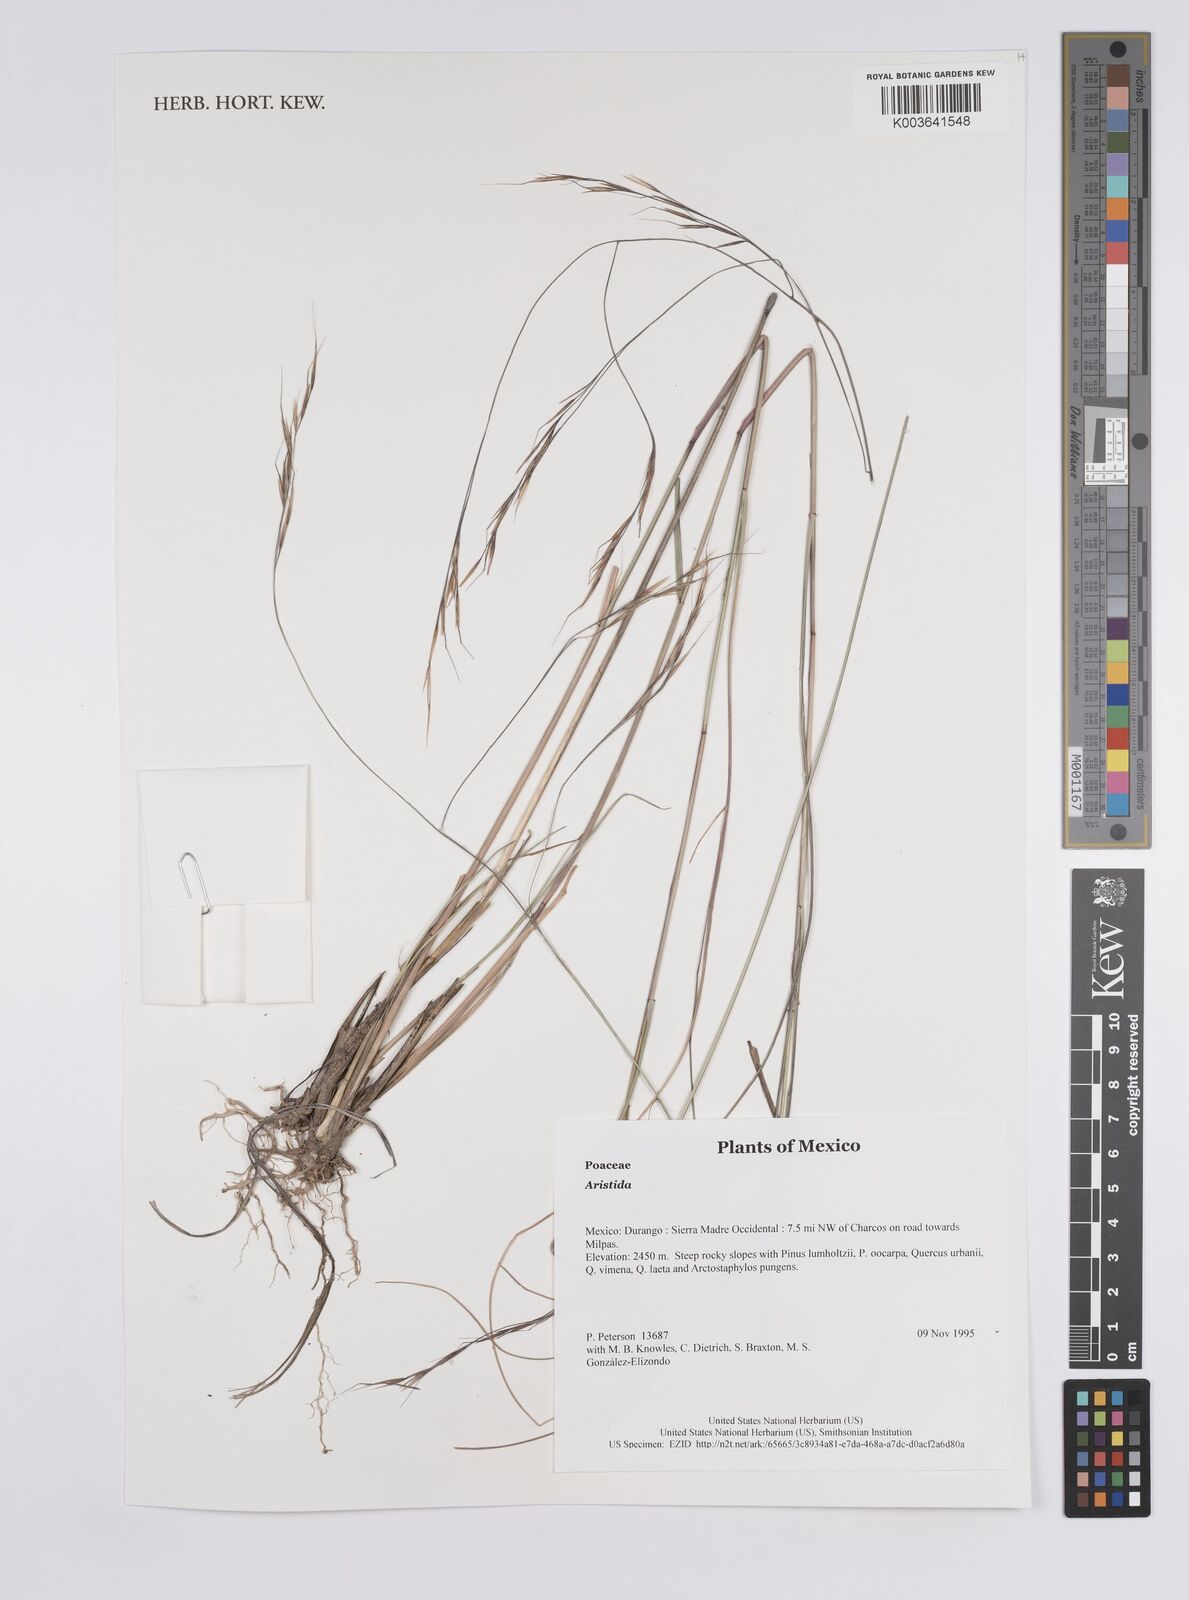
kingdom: Plantae
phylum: Tracheophyta
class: Liliopsida
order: Poales
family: Poaceae
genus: Aristida
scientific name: Aristida
